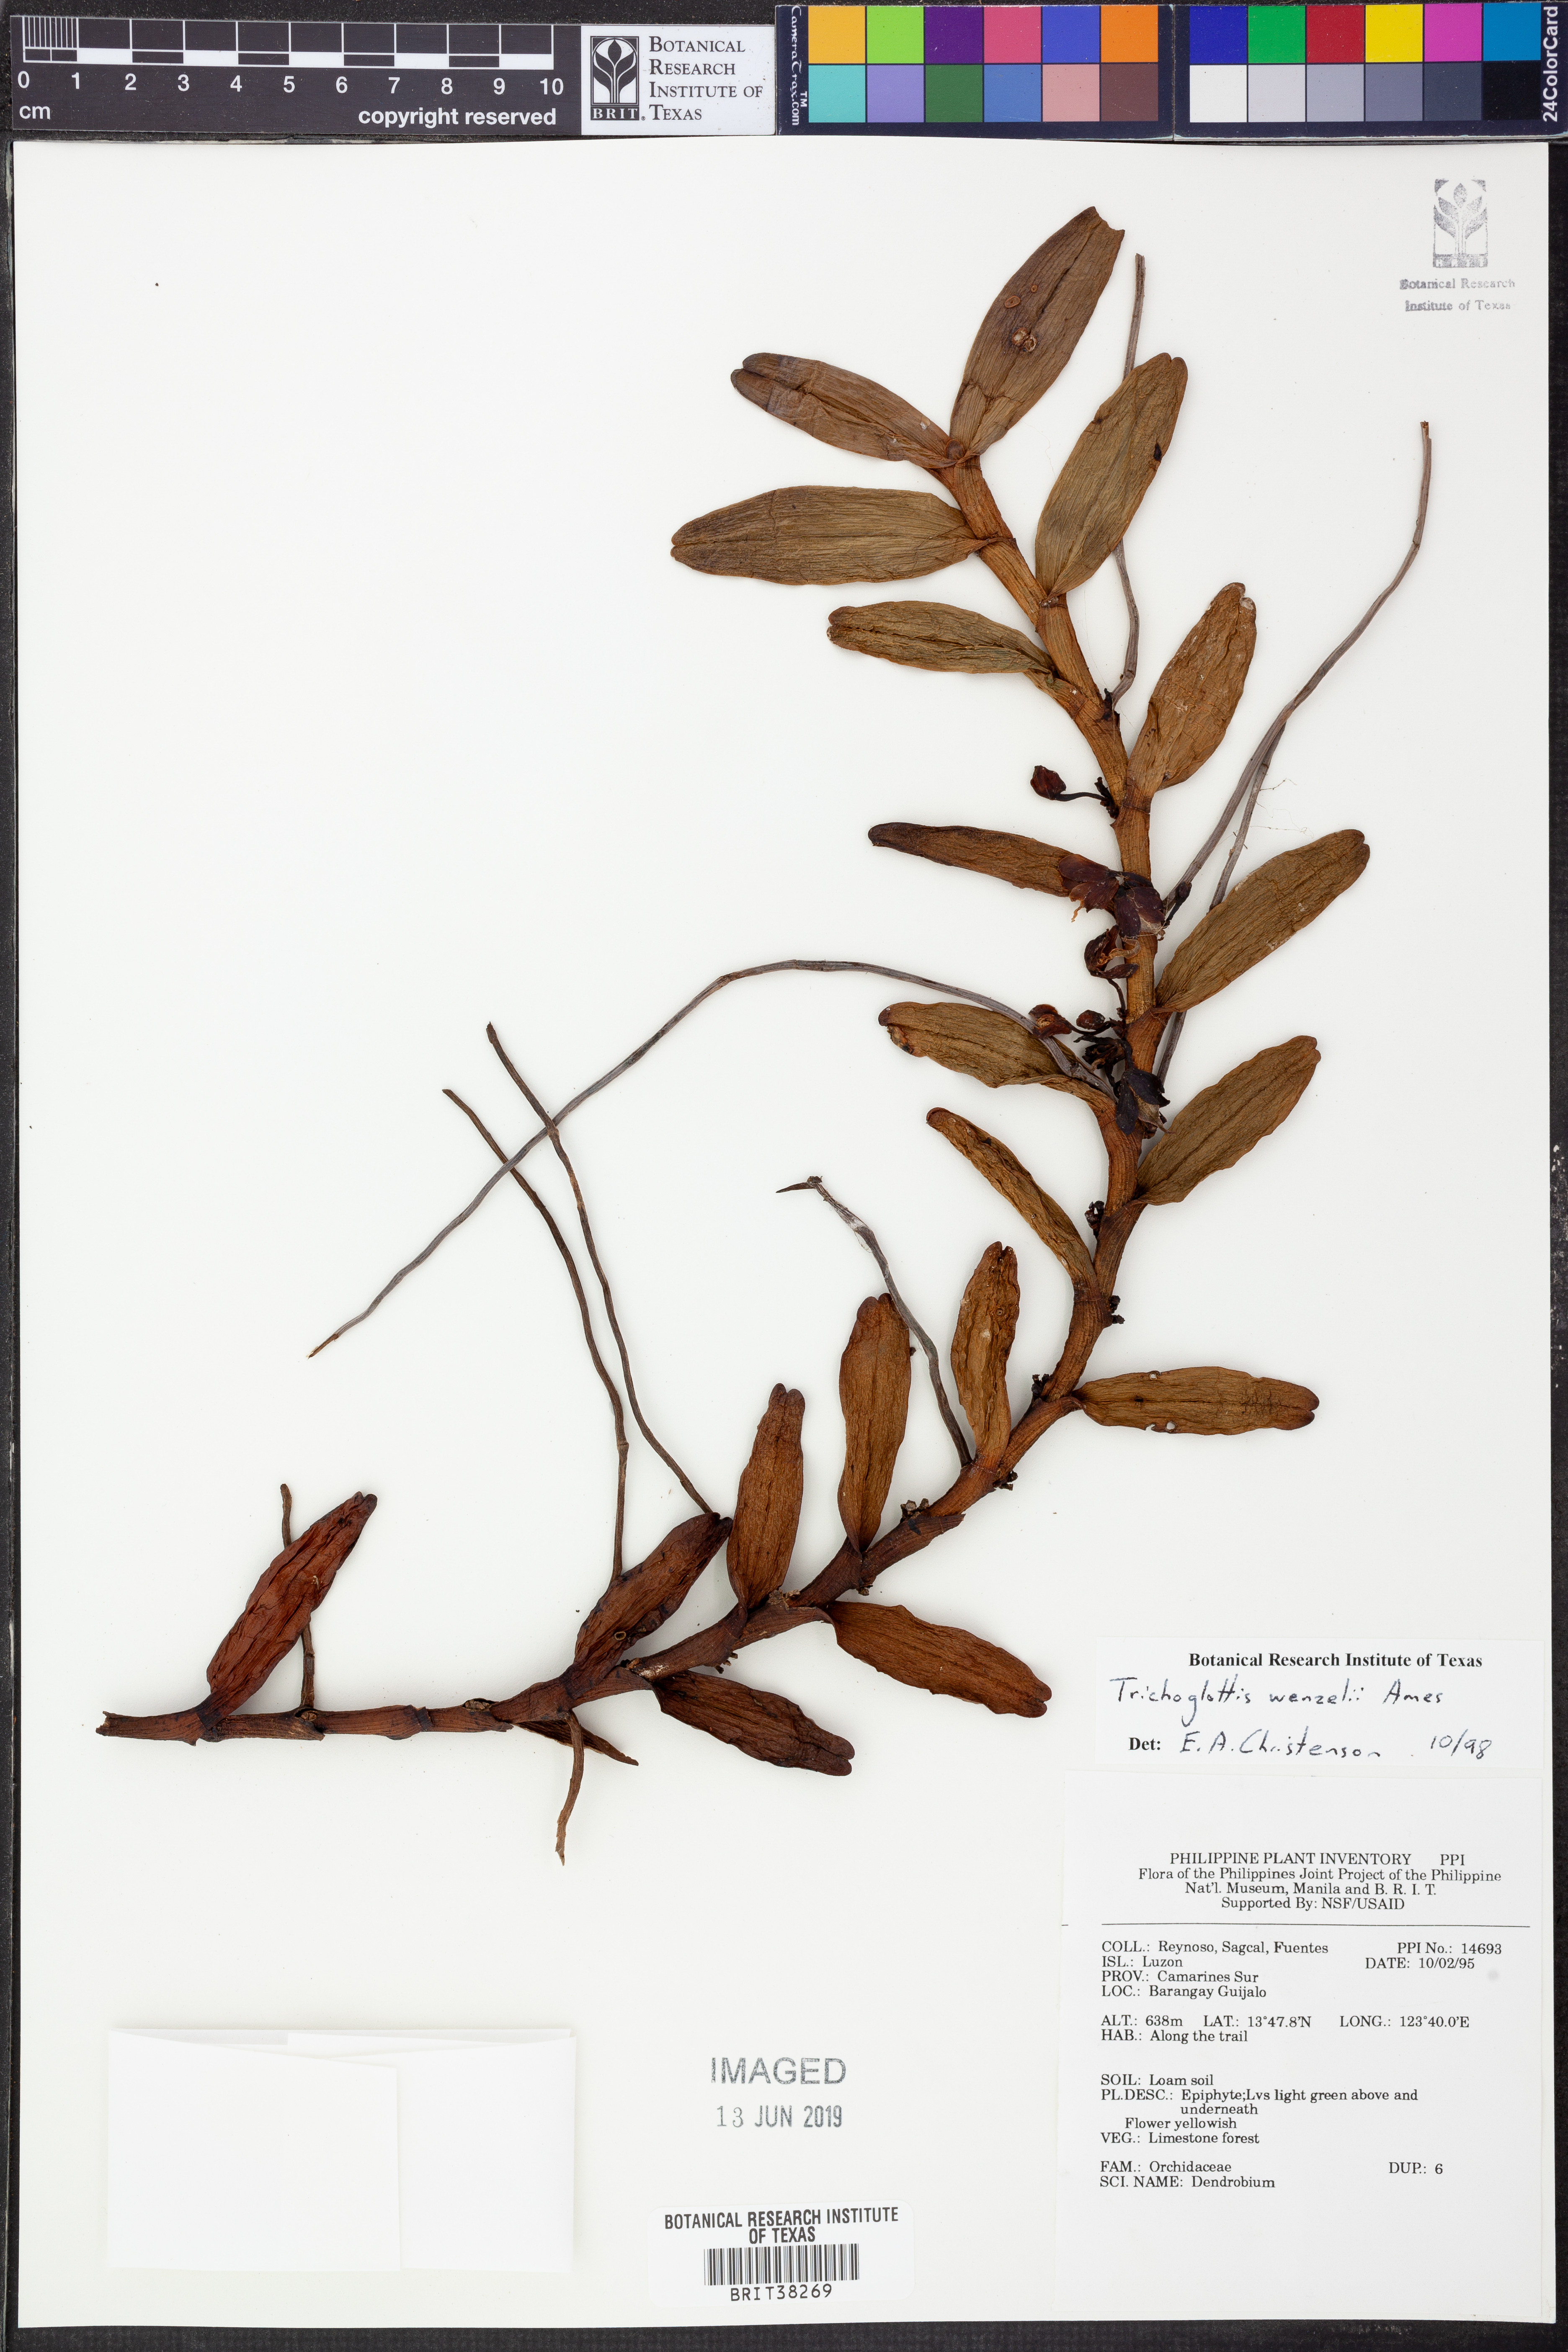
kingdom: Plantae
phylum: Tracheophyta
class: Liliopsida
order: Asparagales
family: Orchidaceae
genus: Trichoglottis
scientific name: Trichoglottis geminata
